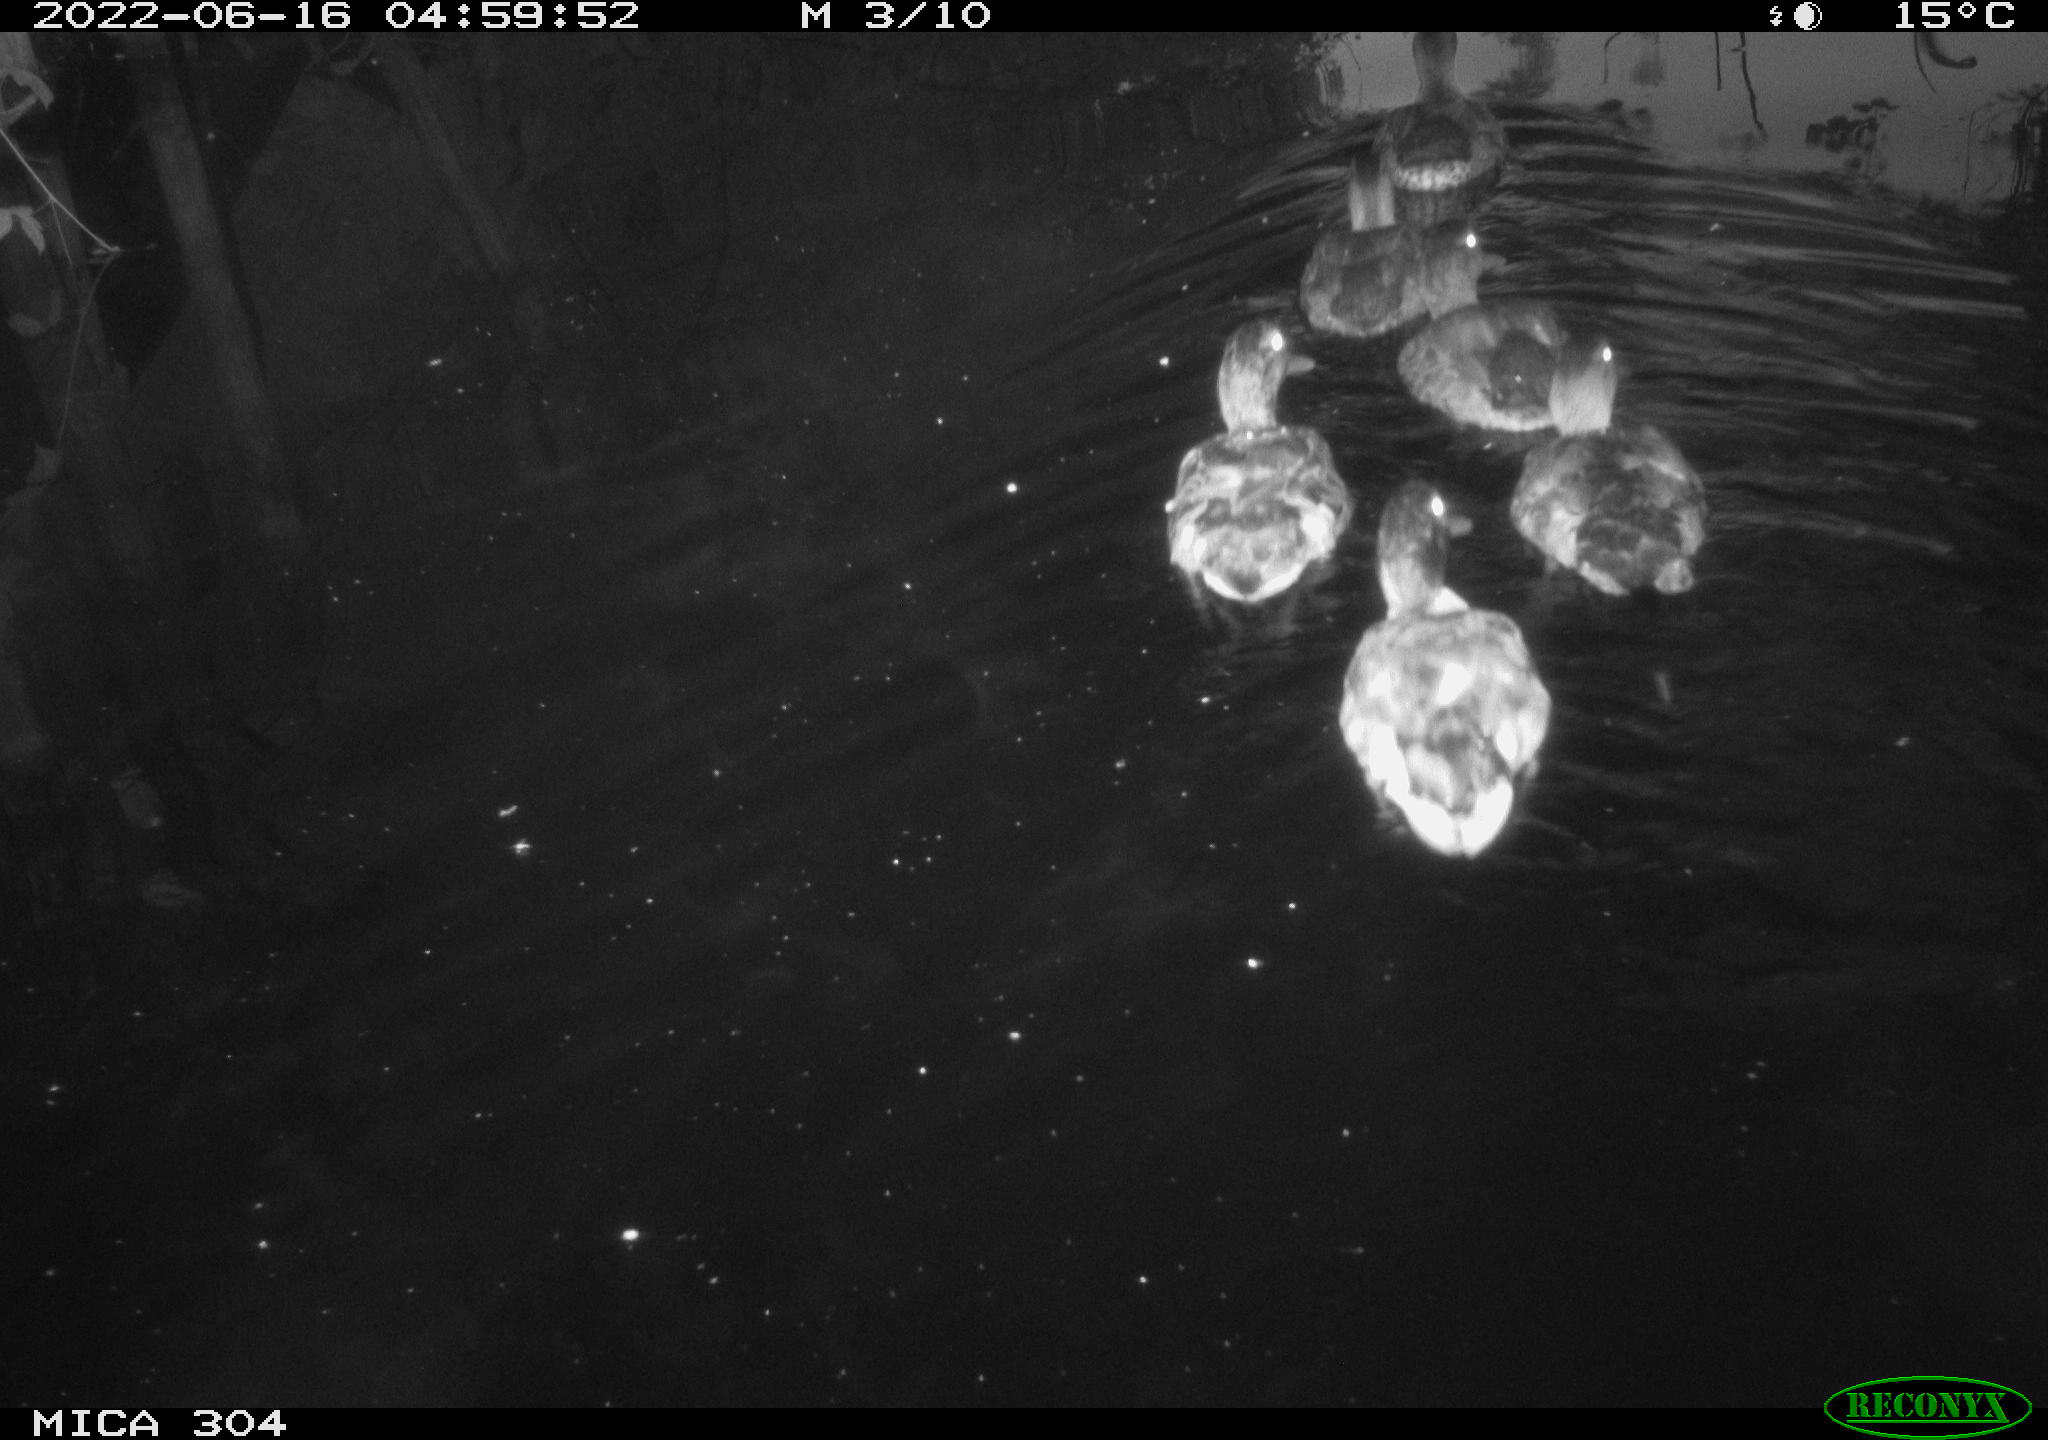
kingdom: Animalia
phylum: Chordata
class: Aves
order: Anseriformes
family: Anatidae
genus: Anas
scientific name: Anas platyrhynchos
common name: Mallard
